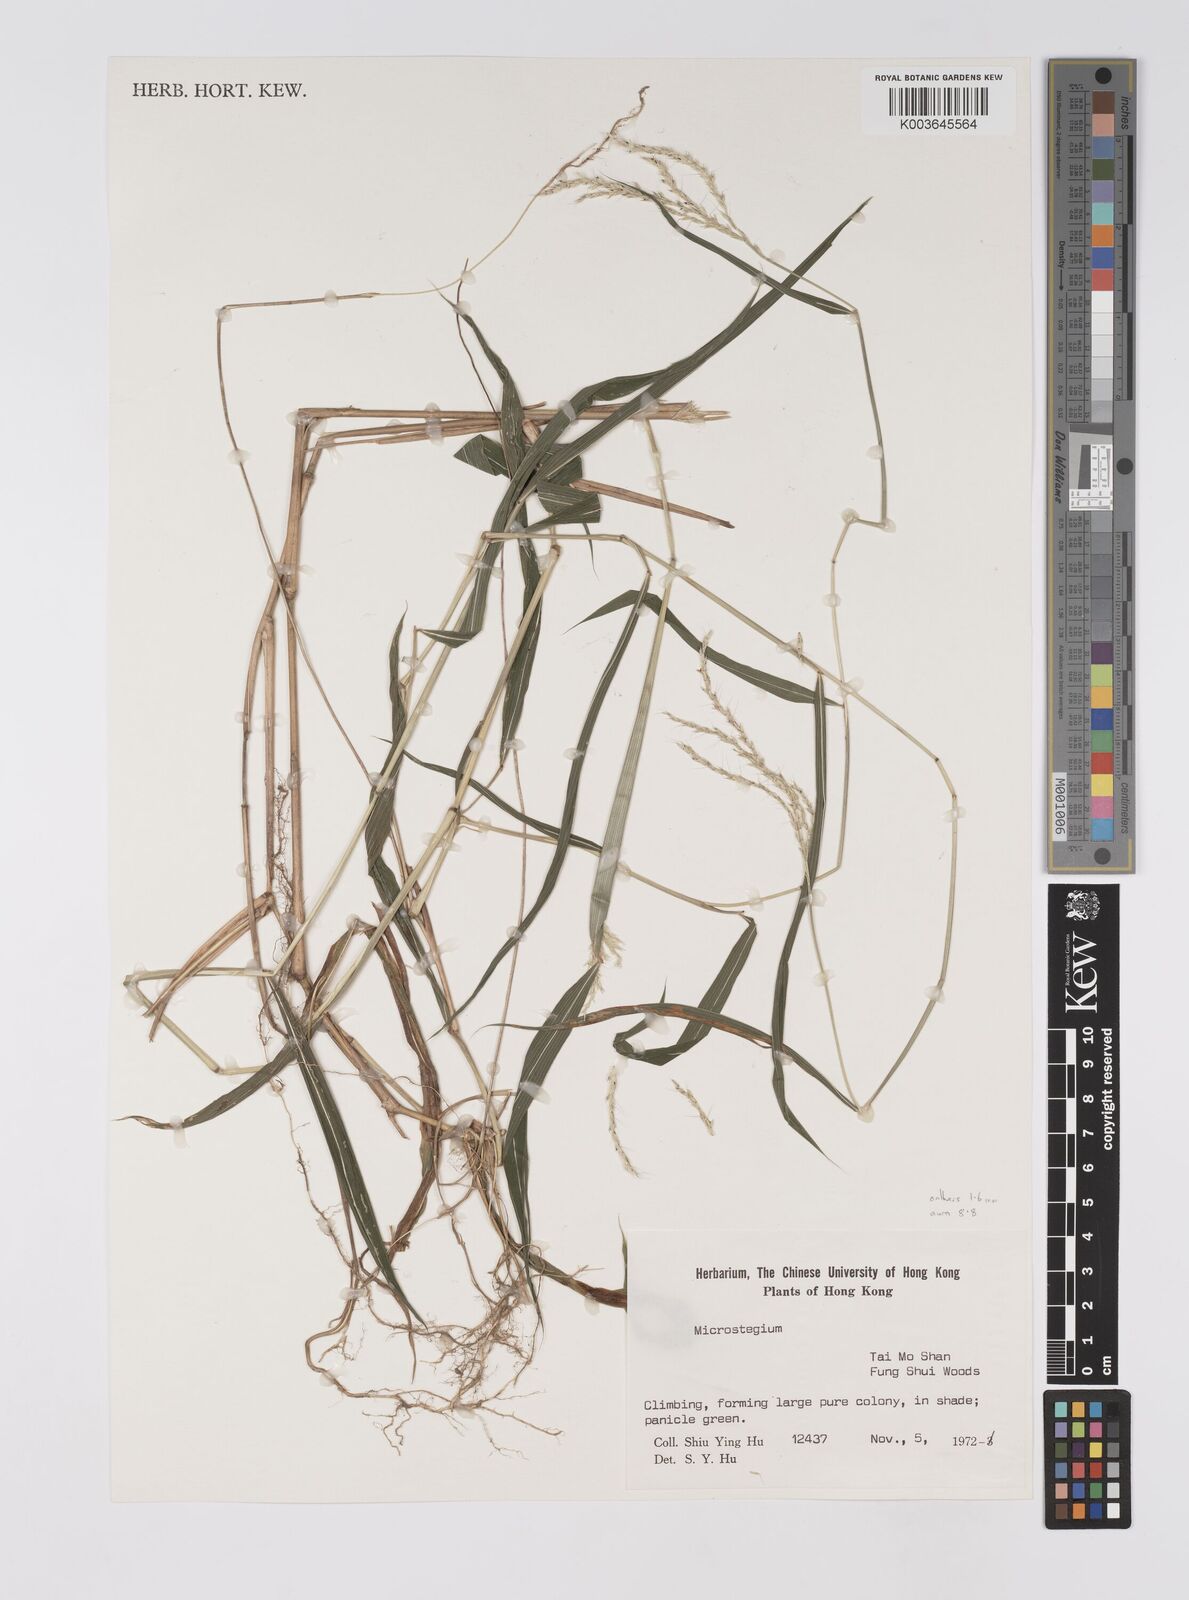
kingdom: Plantae
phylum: Tracheophyta
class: Liliopsida
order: Poales
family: Poaceae
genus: Microstegium
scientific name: Microstegium fasciculatum
